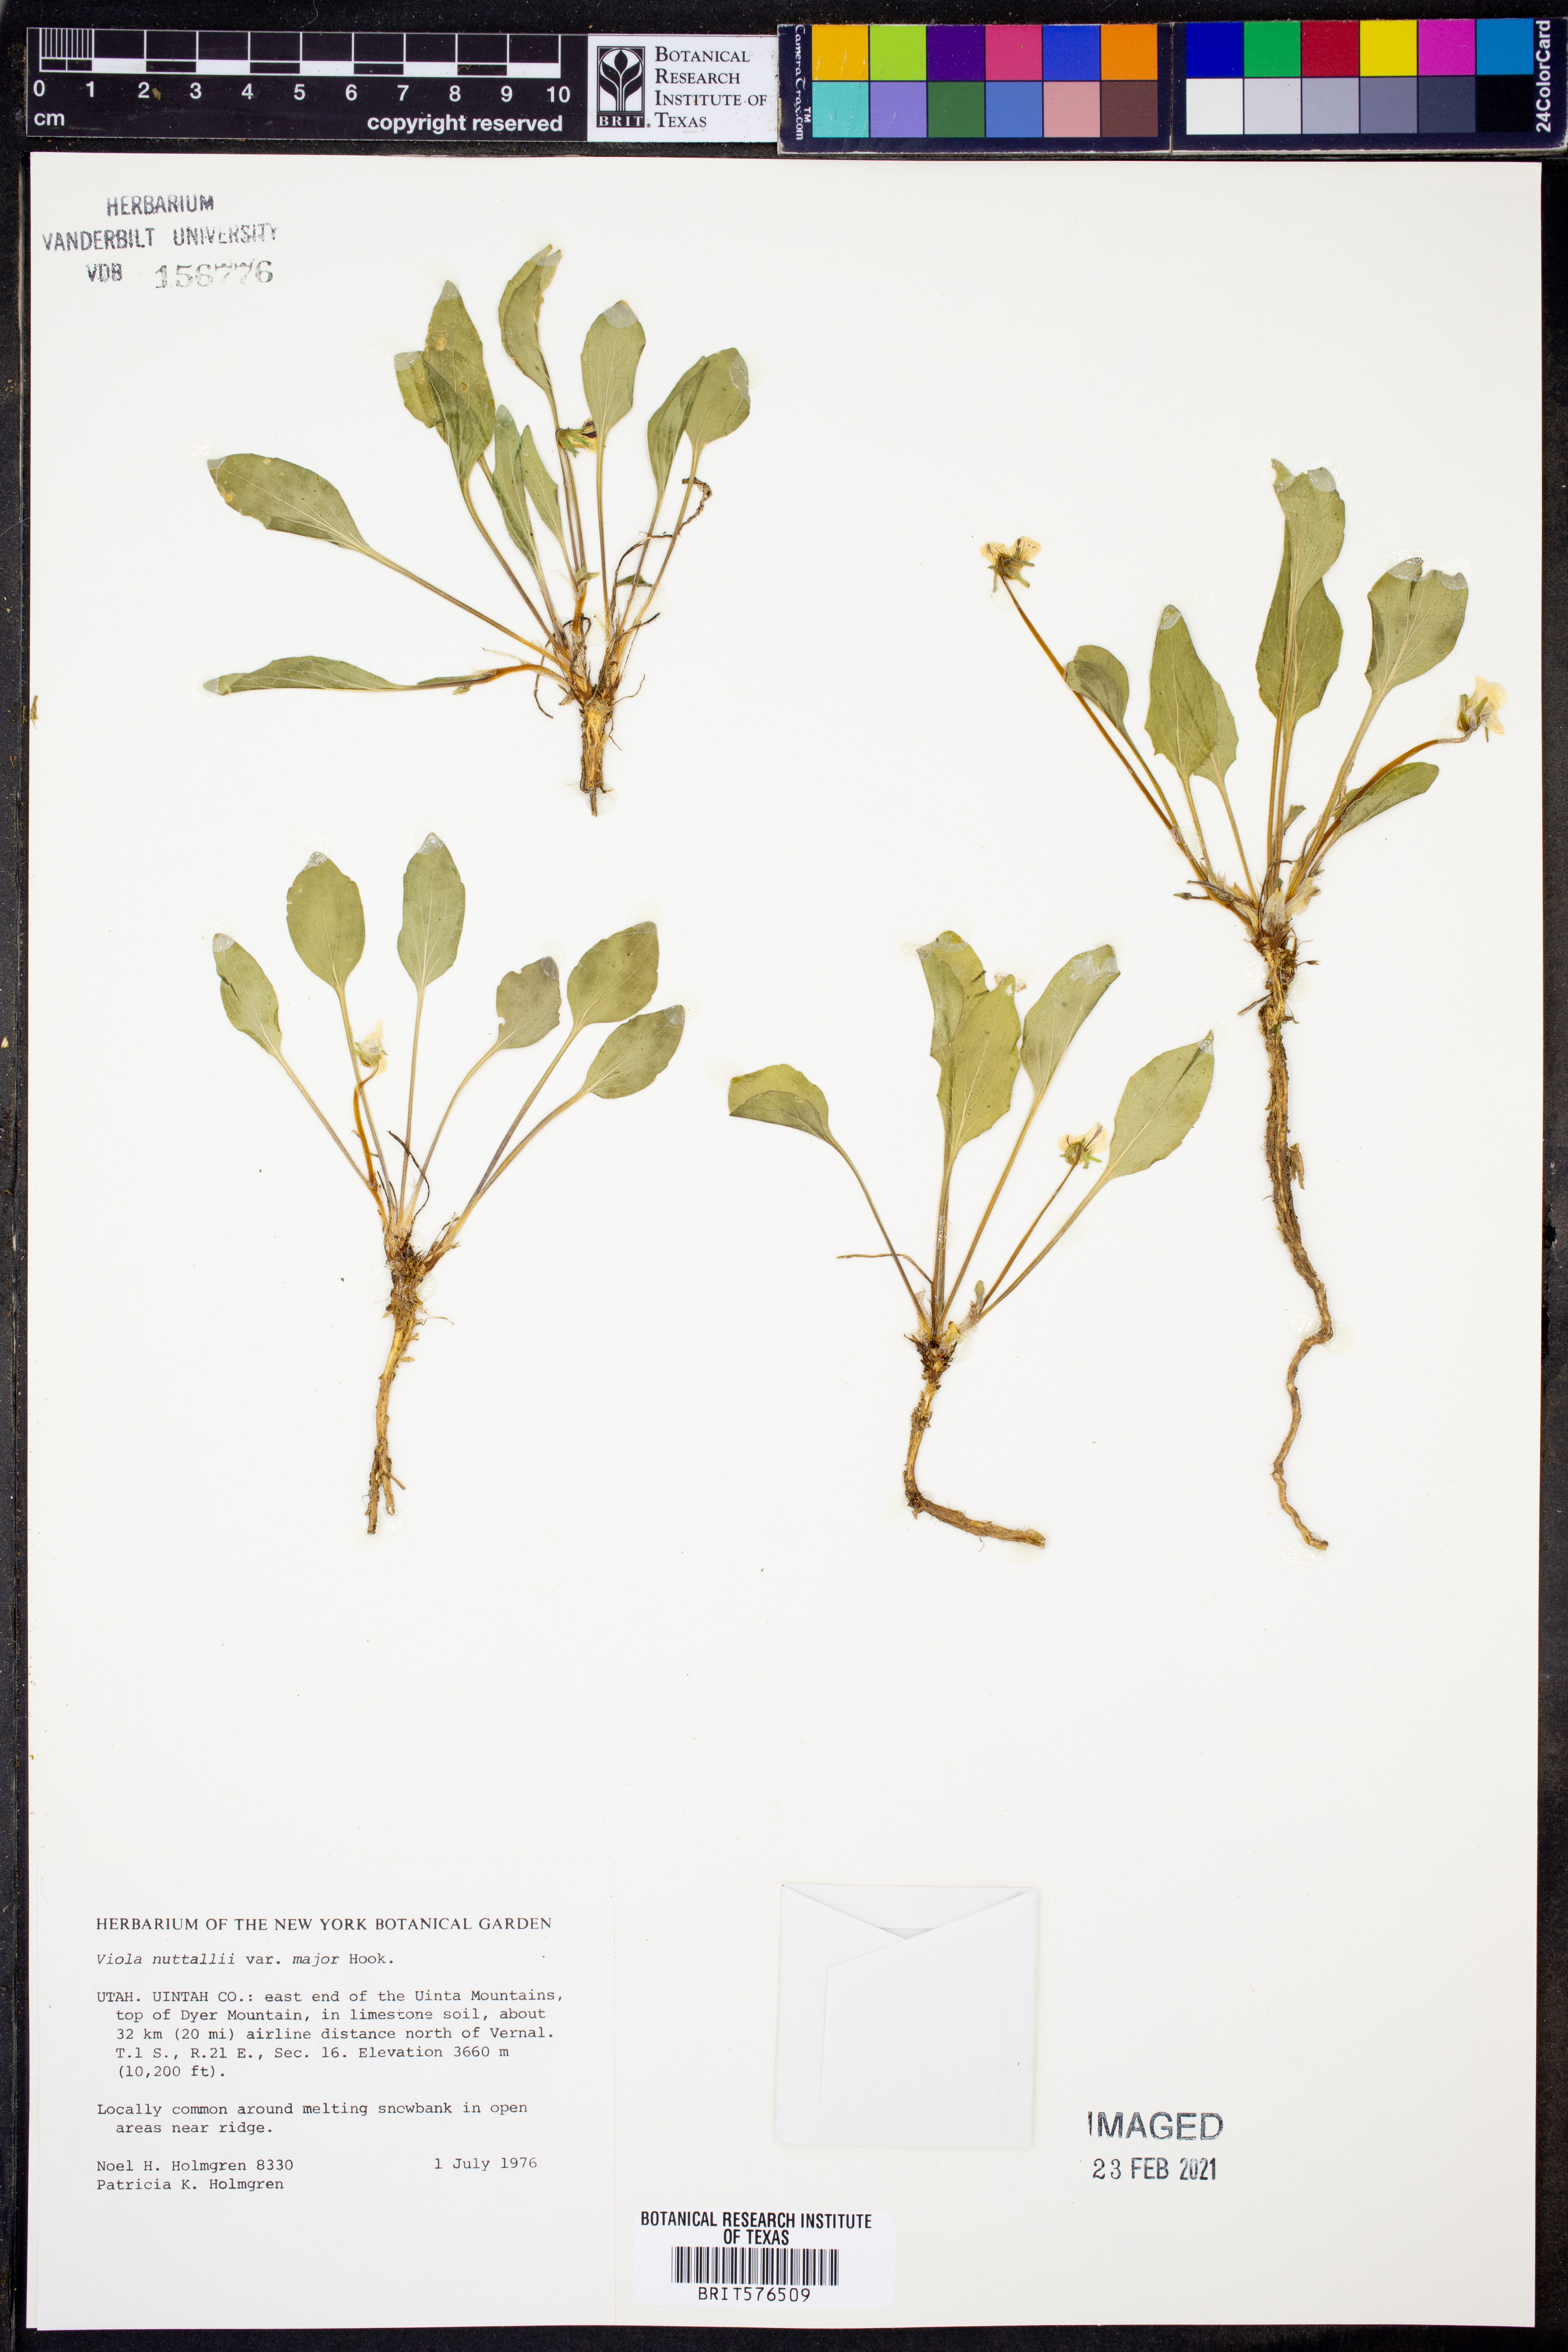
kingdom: Plantae
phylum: Tracheophyta
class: Magnoliopsida
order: Malpighiales
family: Violaceae
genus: Viola
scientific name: Viola vallicola
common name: Valley violet
